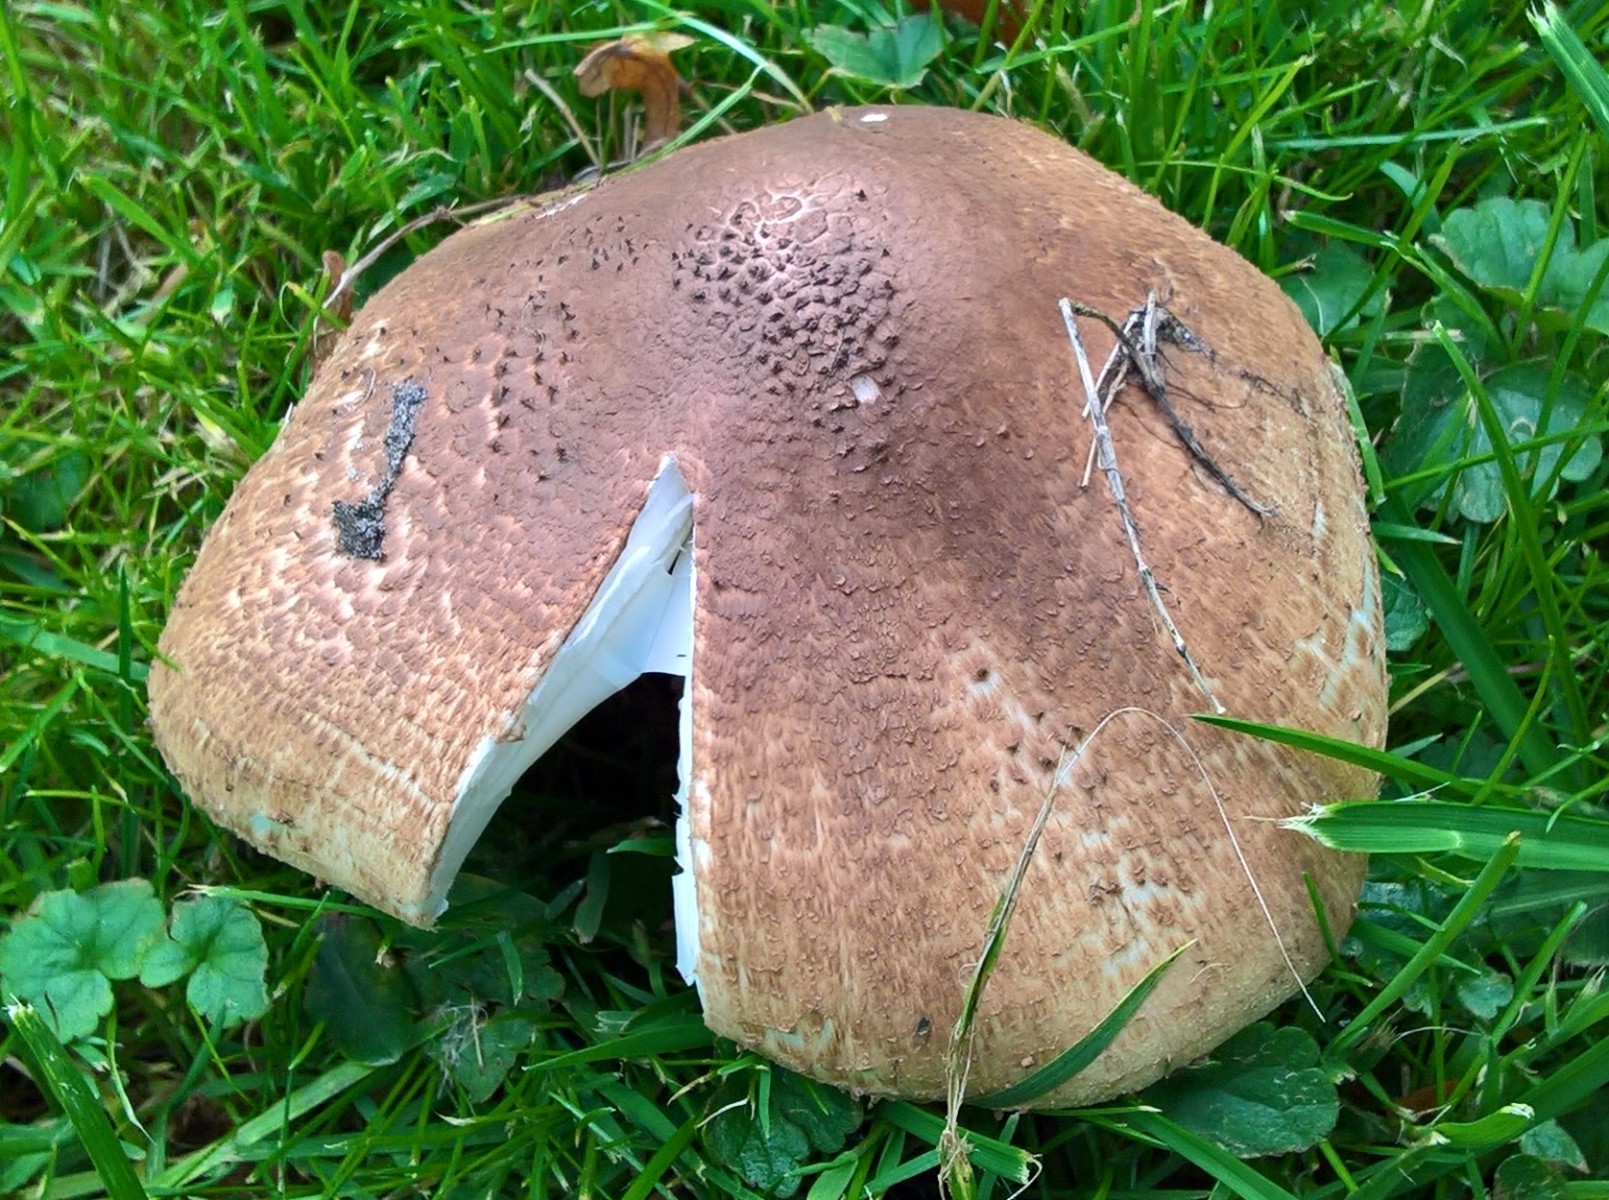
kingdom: Fungi
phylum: Basidiomycota
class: Agaricomycetes
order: Agaricales
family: Agaricaceae
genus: Echinoderma
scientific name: Echinoderma asperum
